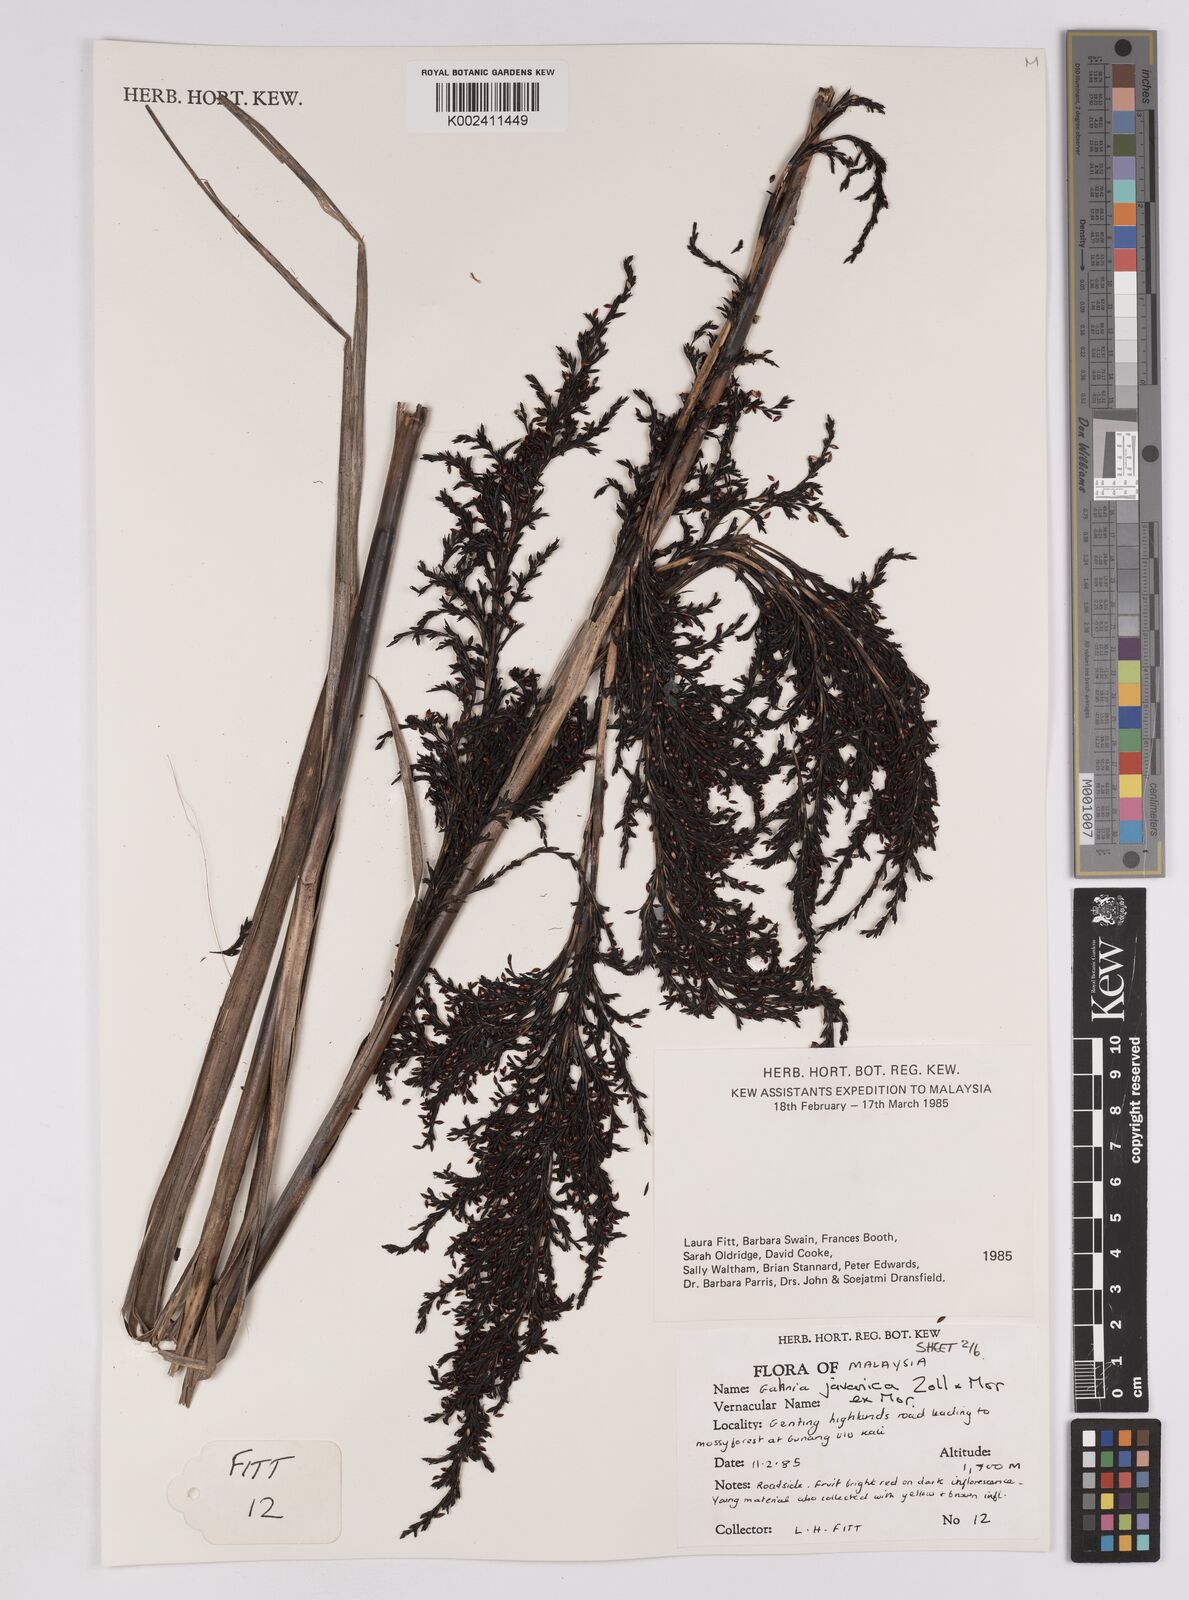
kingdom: Plantae
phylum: Tracheophyta
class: Liliopsida
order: Poales
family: Cyperaceae
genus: Gahnia
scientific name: Gahnia javanica
